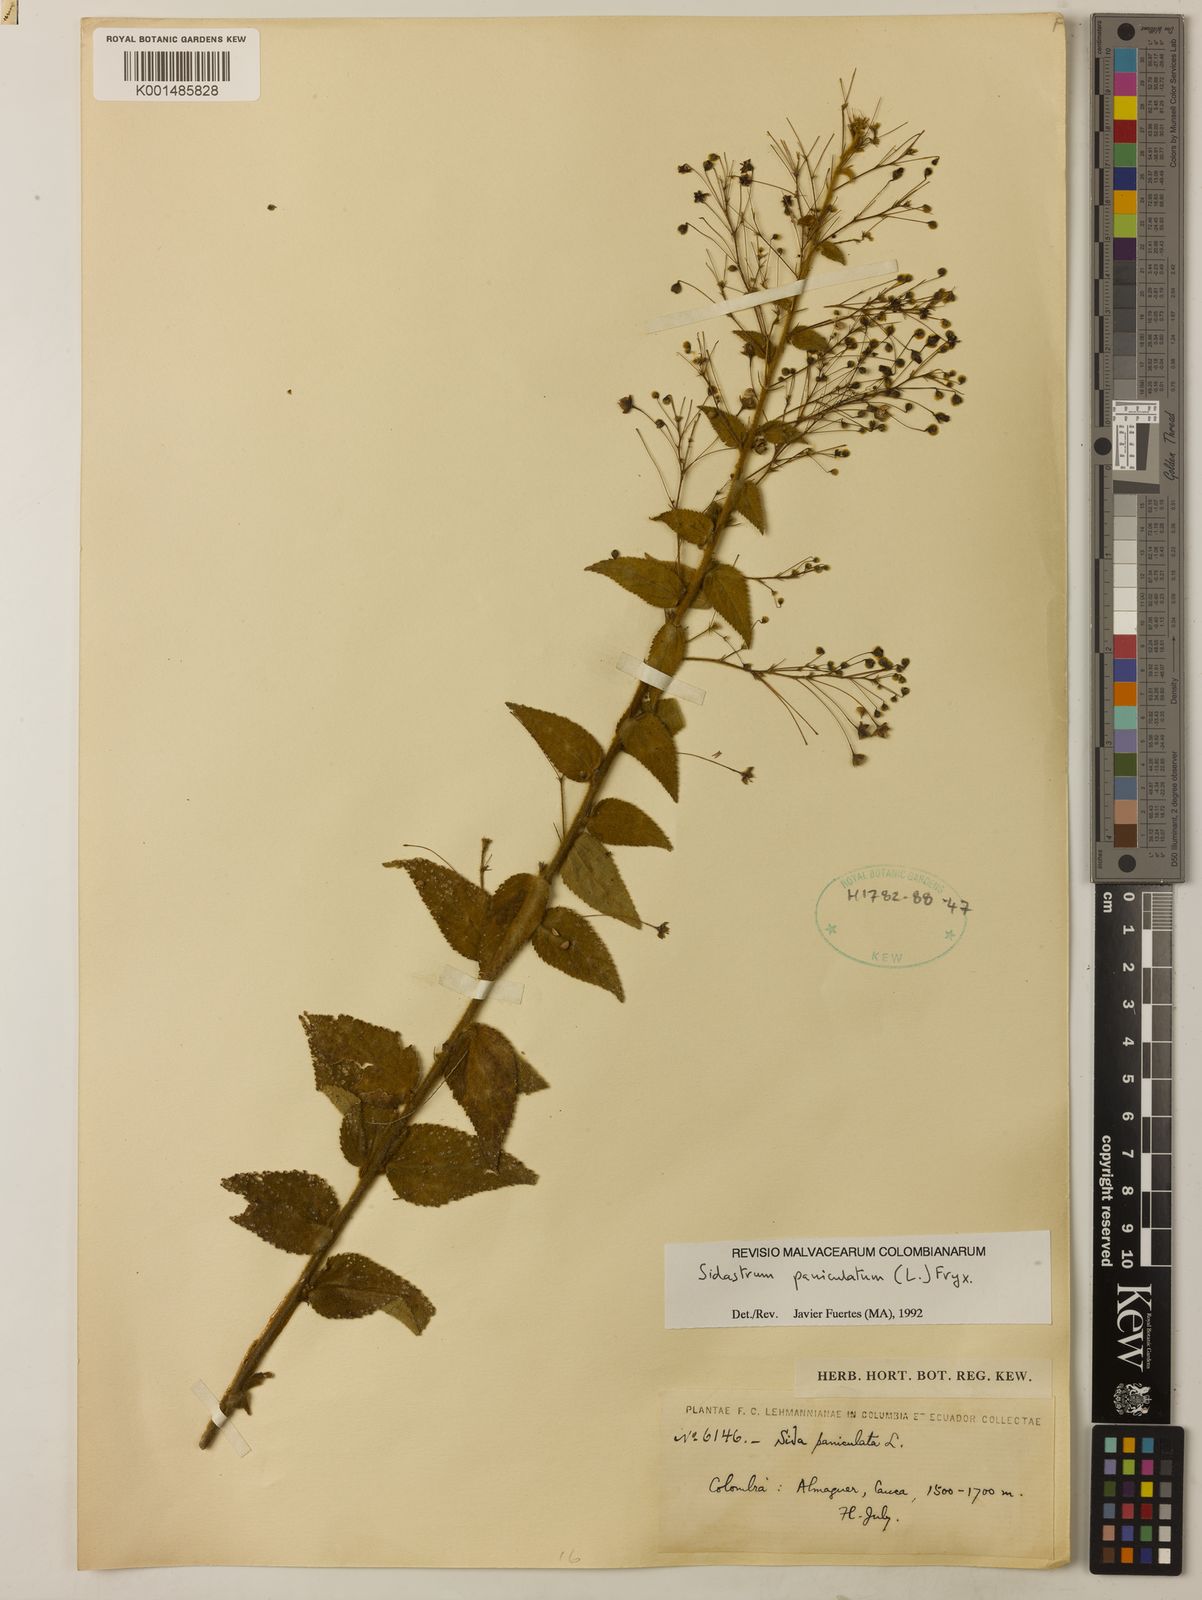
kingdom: Plantae
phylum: Tracheophyta
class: Magnoliopsida
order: Malvales
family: Malvaceae
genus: Sidastrum
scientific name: Sidastrum paniculatum
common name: Panicled sandmallow
